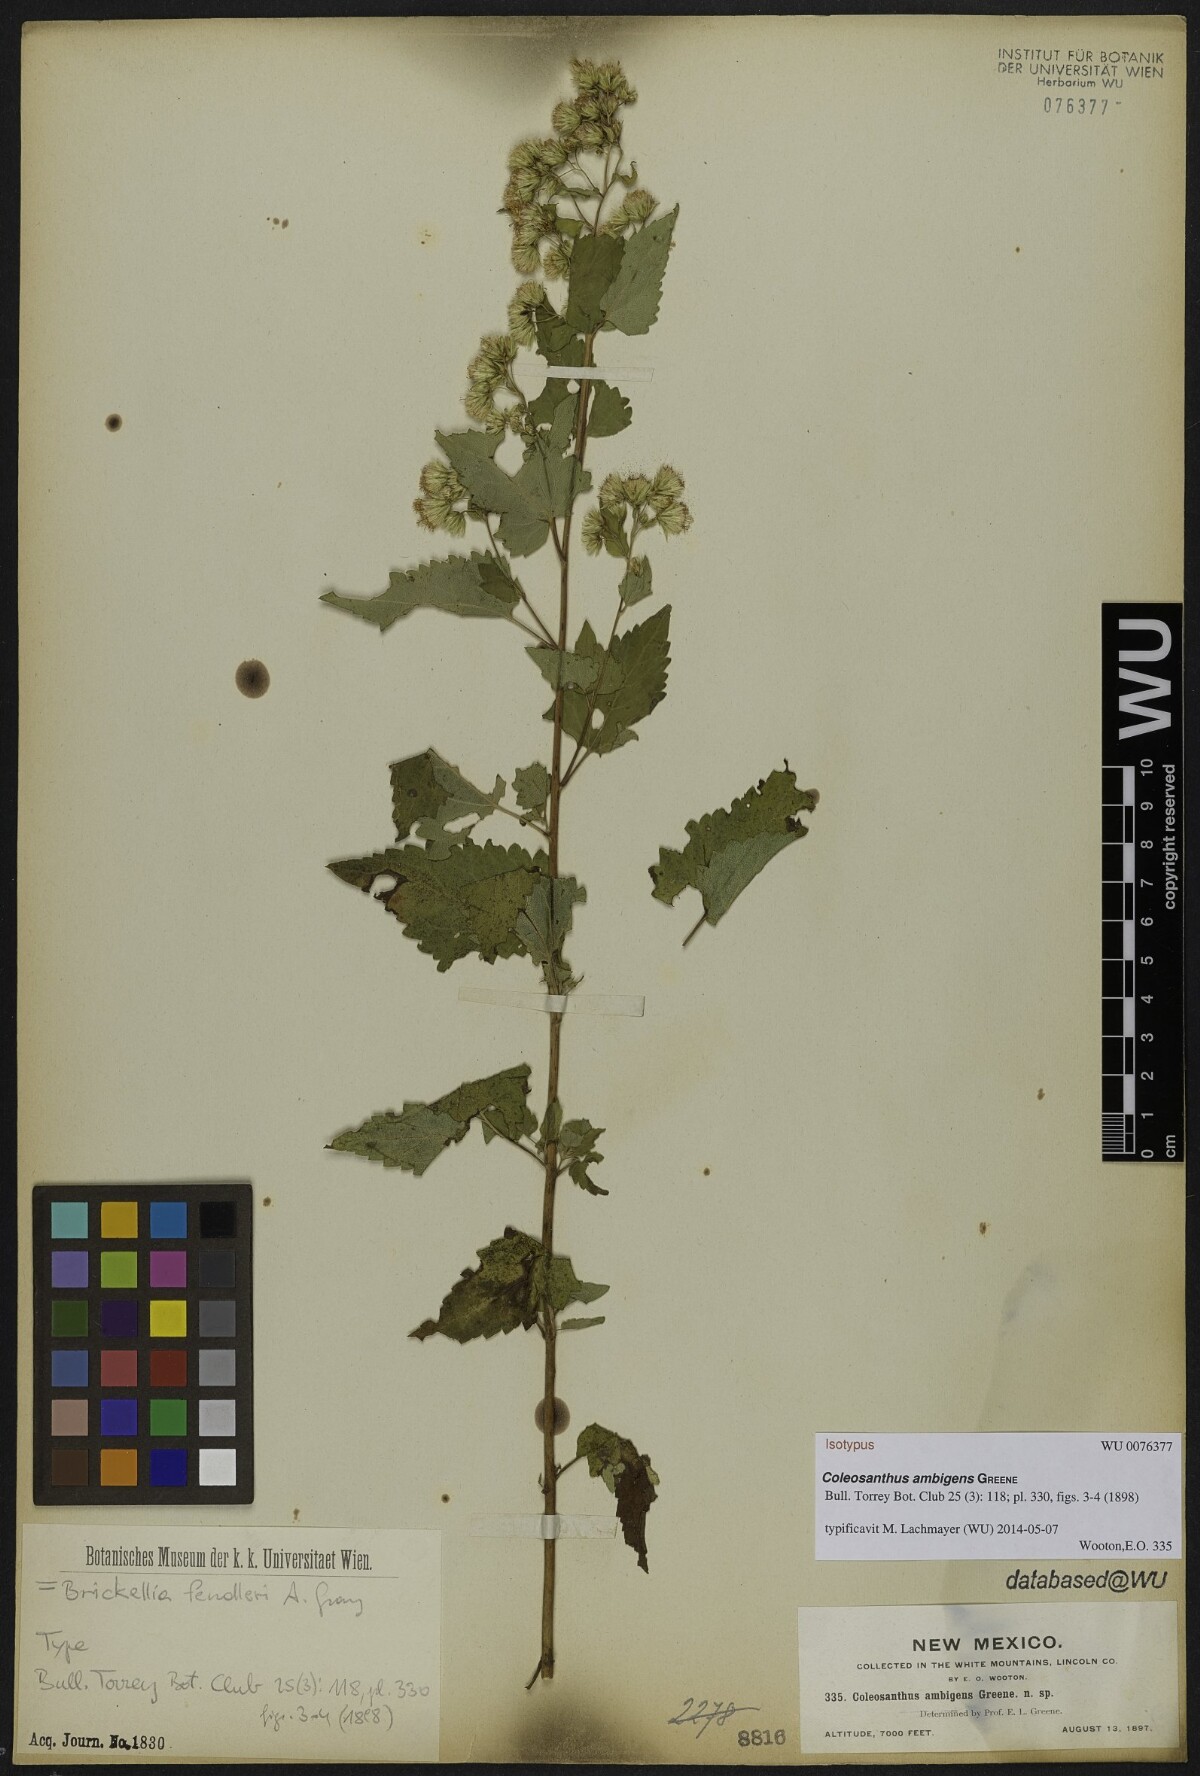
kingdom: Plantae
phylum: Tracheophyta
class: Magnoliopsida
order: Asterales
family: Asteraceae
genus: Brickelliastrum
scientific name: Brickelliastrum fendleri
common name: Fendler's-brickellbush
